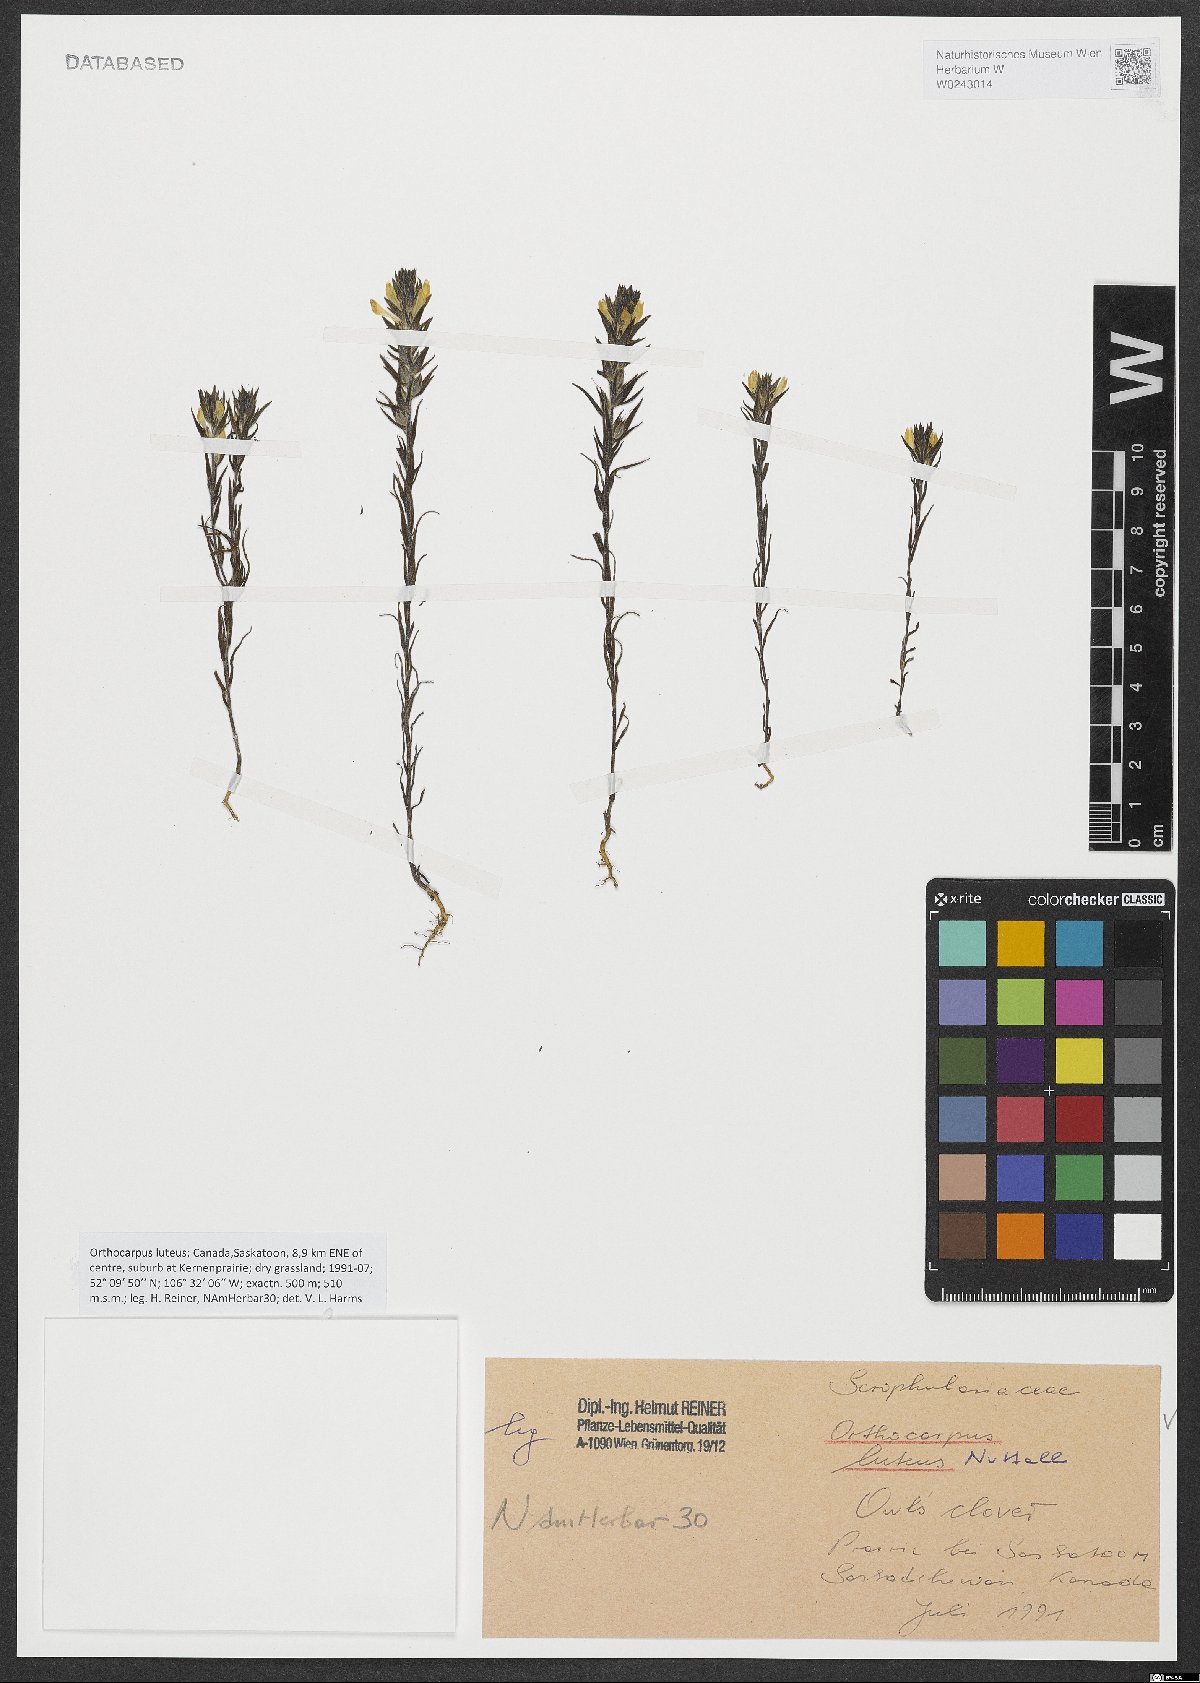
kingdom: Plantae
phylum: Tracheophyta
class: Magnoliopsida
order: Lamiales
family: Orobanchaceae
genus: Orthocarpus
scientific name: Orthocarpus luteus
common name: Golden-tongue owl's-clover
